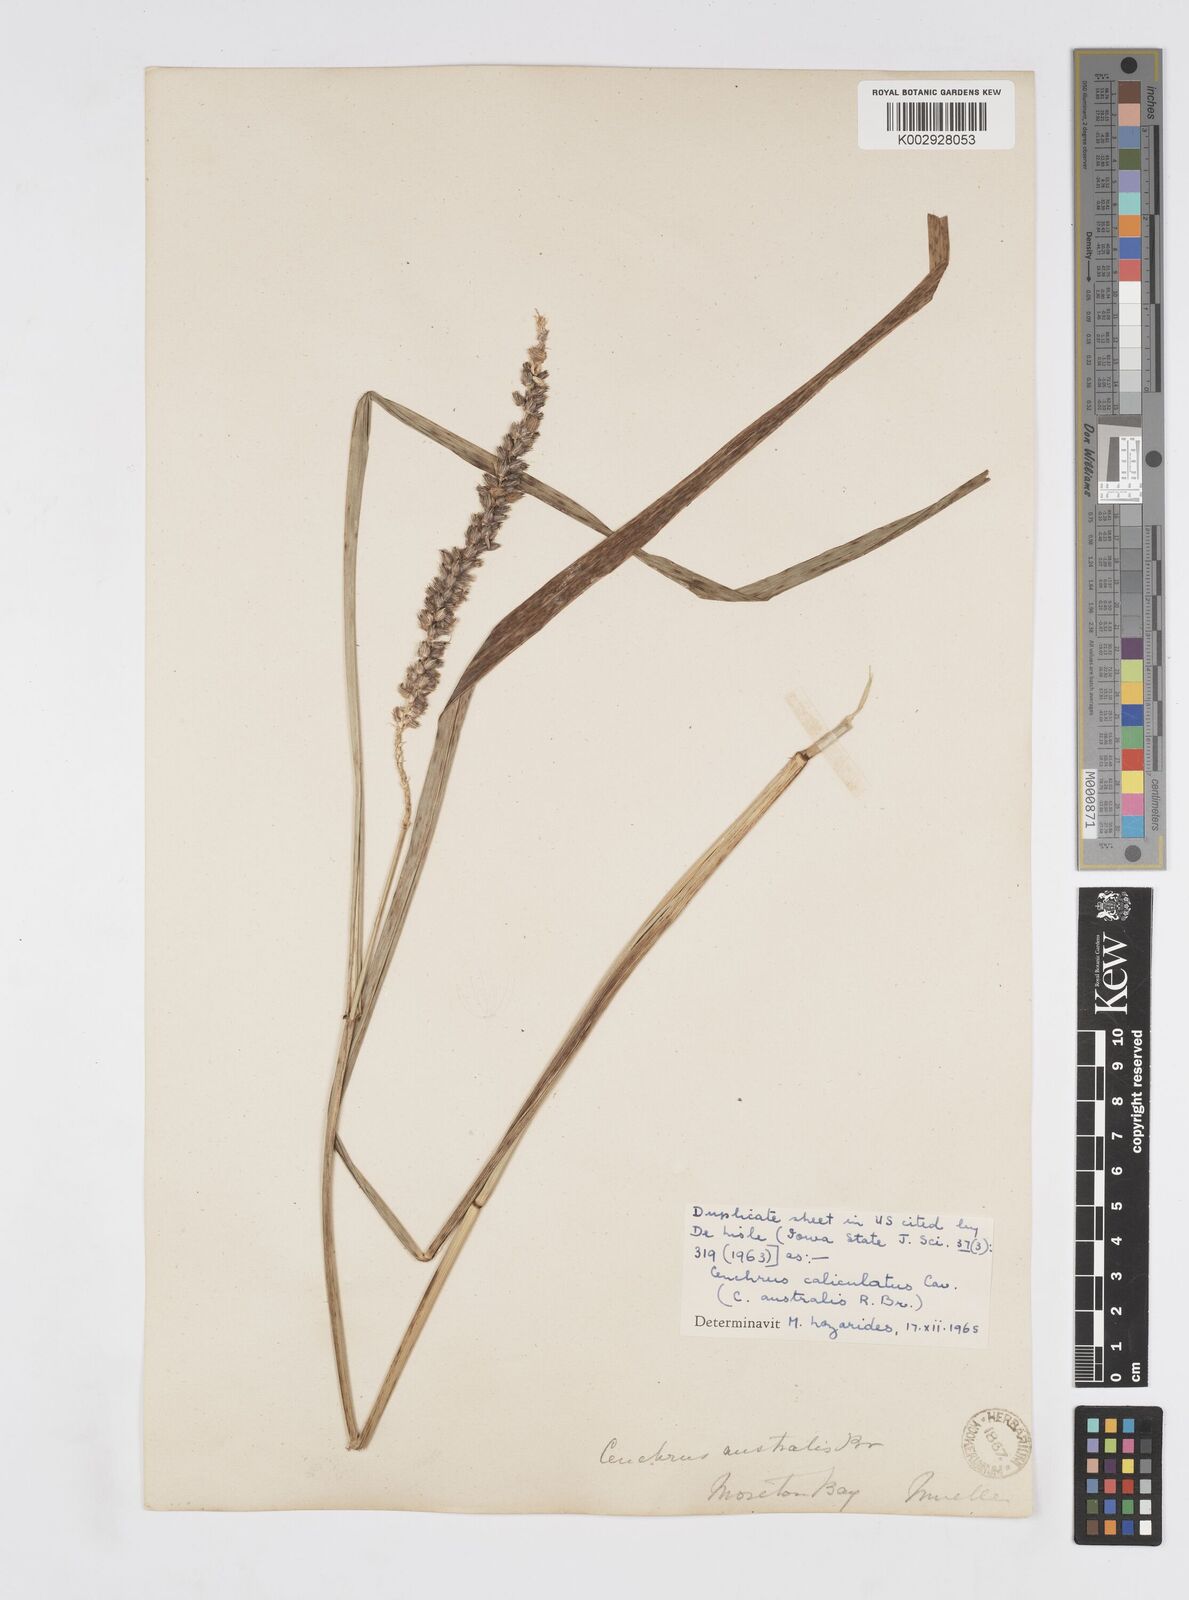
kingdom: Plantae
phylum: Tracheophyta
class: Liliopsida
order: Poales
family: Poaceae
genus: Cenchrus
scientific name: Cenchrus caliculatus
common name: Large bur grass
